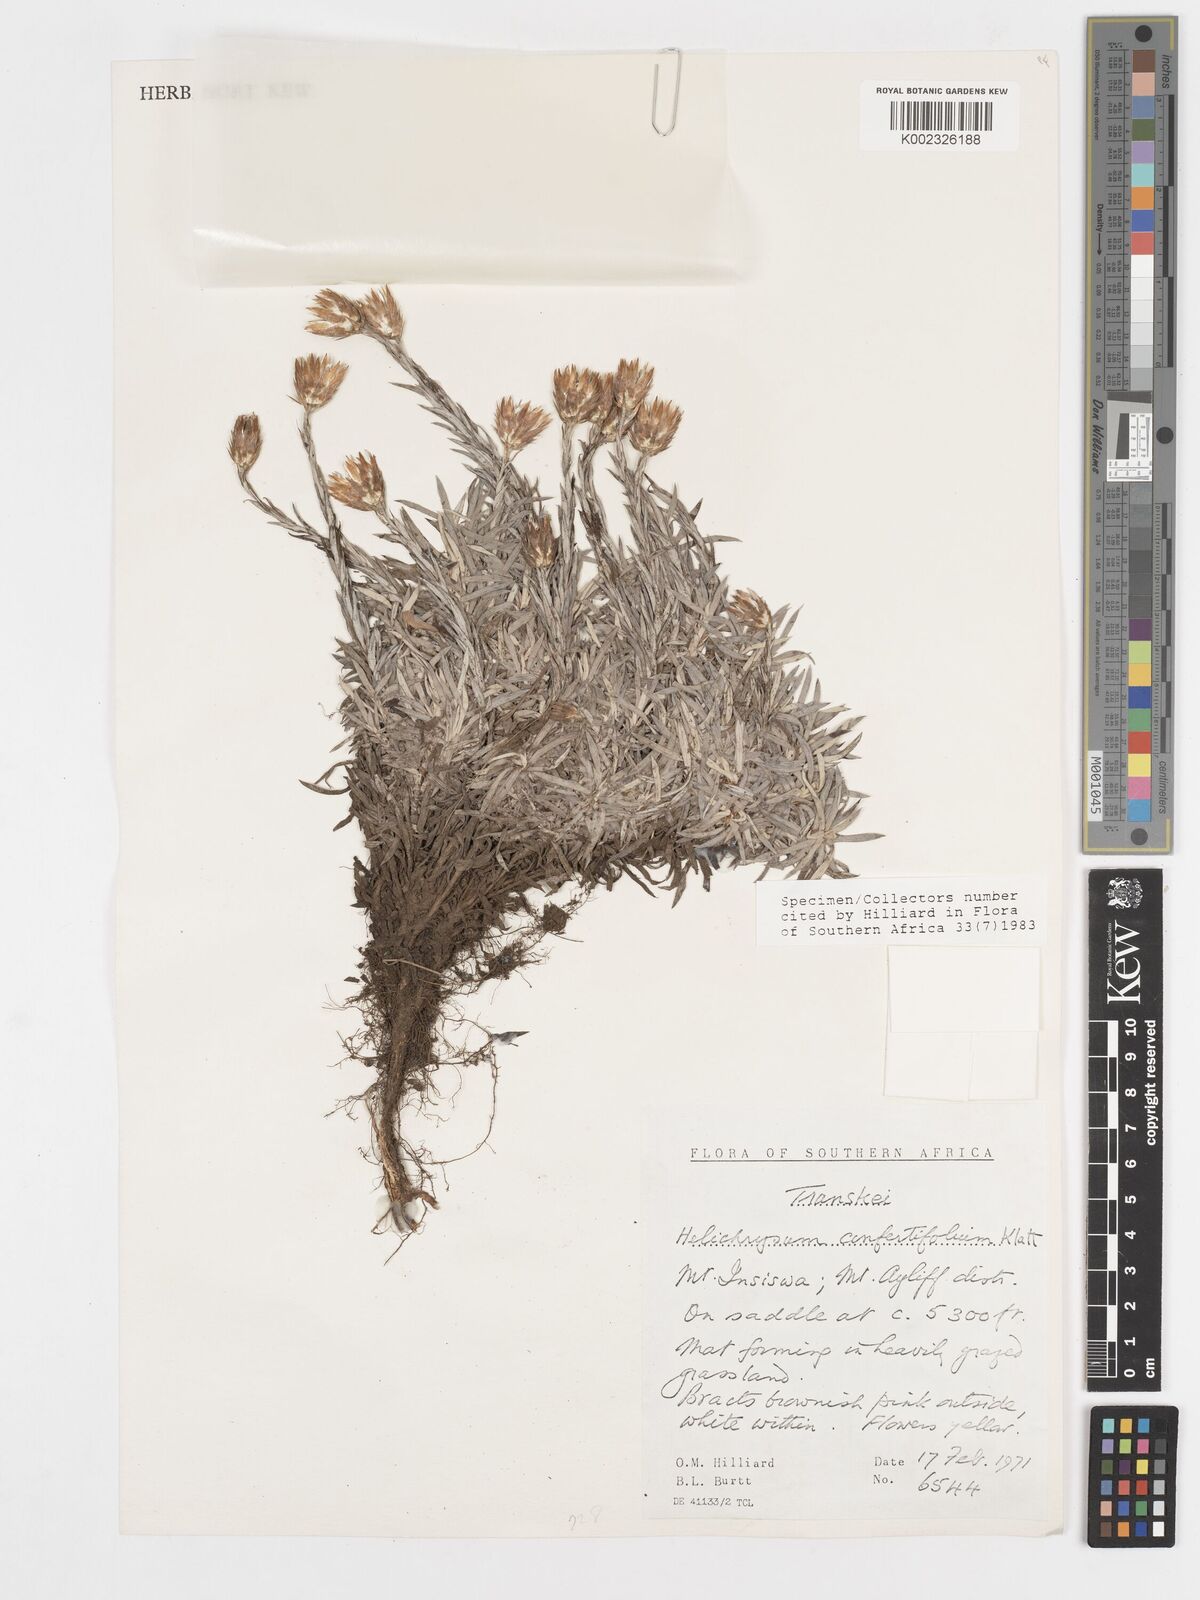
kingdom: Plantae
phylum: Tracheophyta
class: Magnoliopsida
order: Asterales
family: Asteraceae
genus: Helichrysum
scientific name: Helichrysum confertifolium
